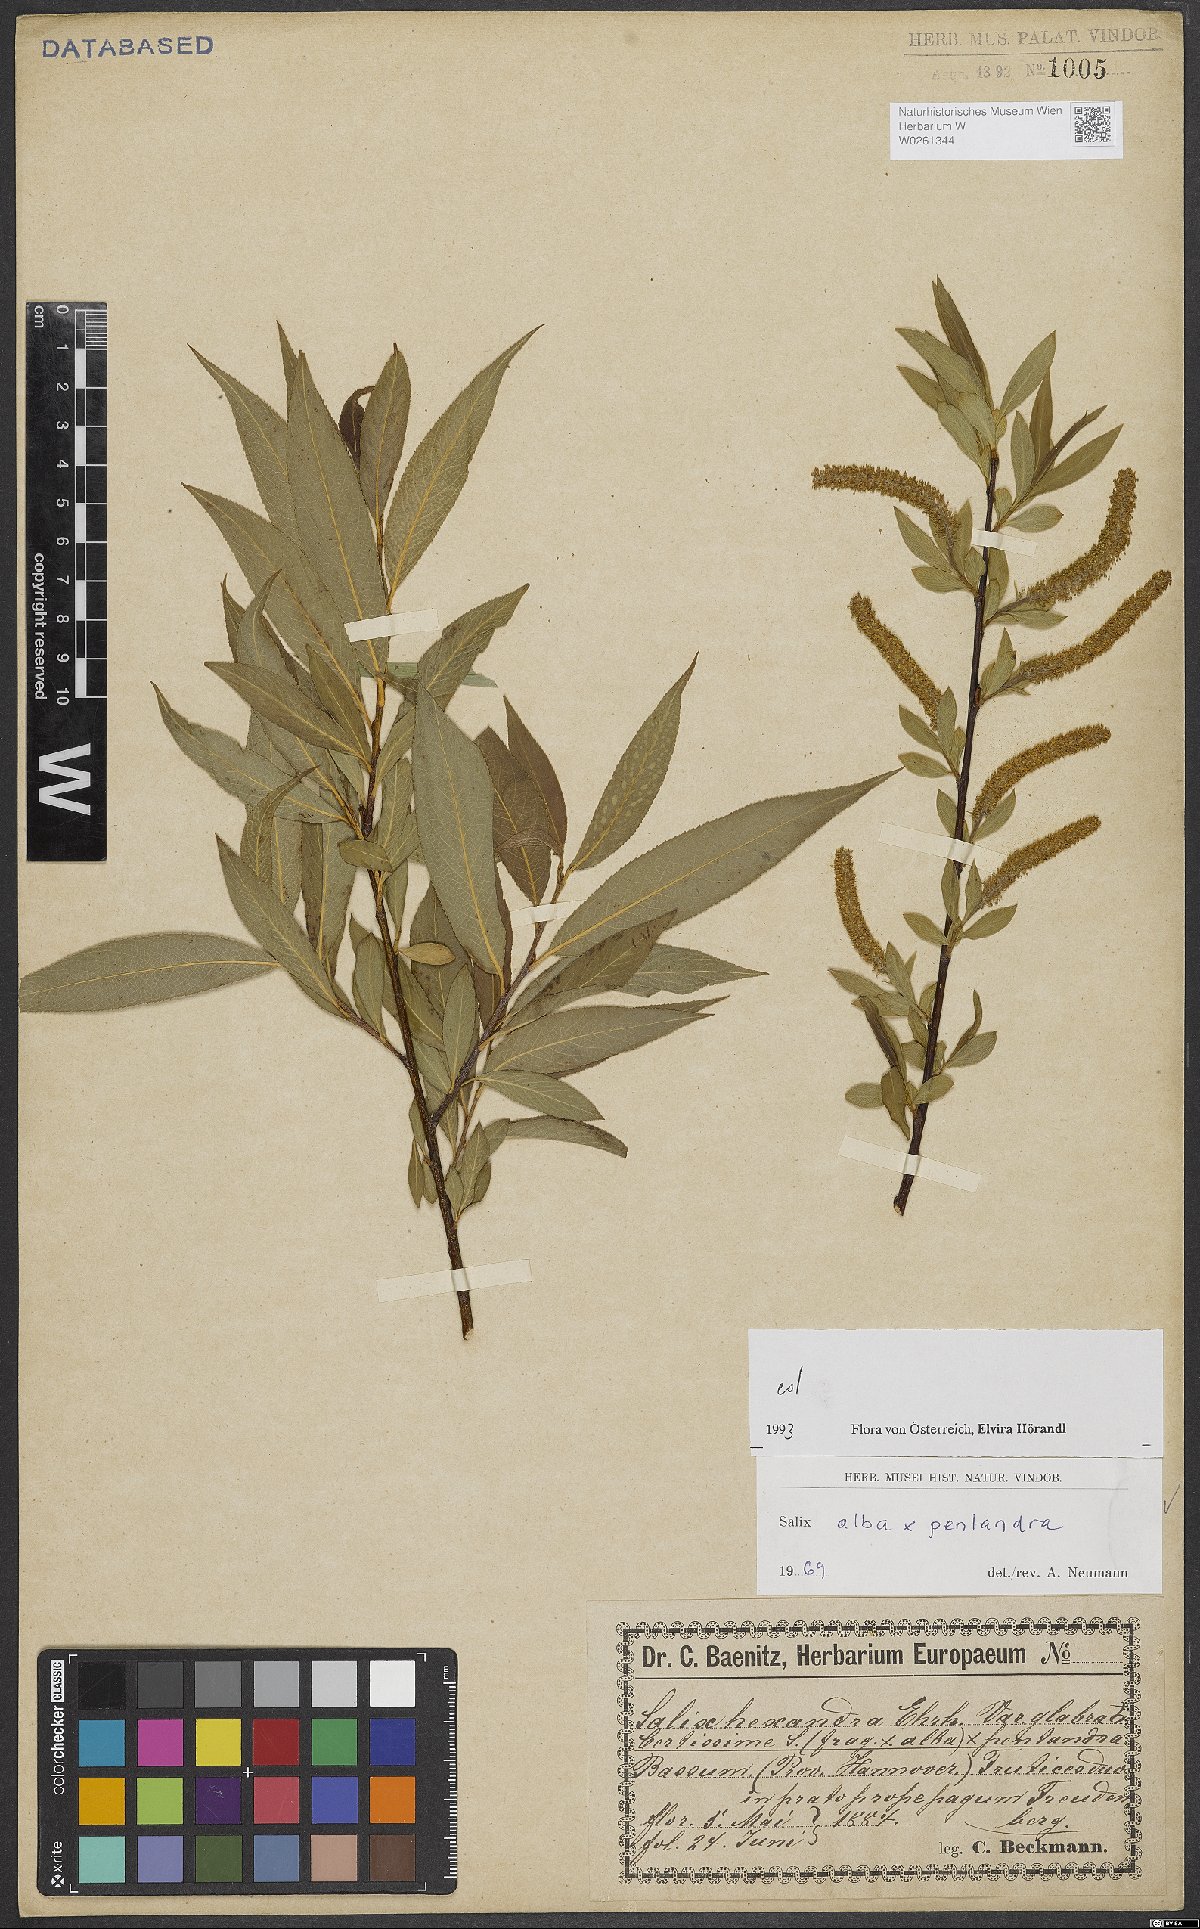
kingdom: Plantae
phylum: Tracheophyta
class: Magnoliopsida
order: Malpighiales
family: Salicaceae
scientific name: Salicaceae
